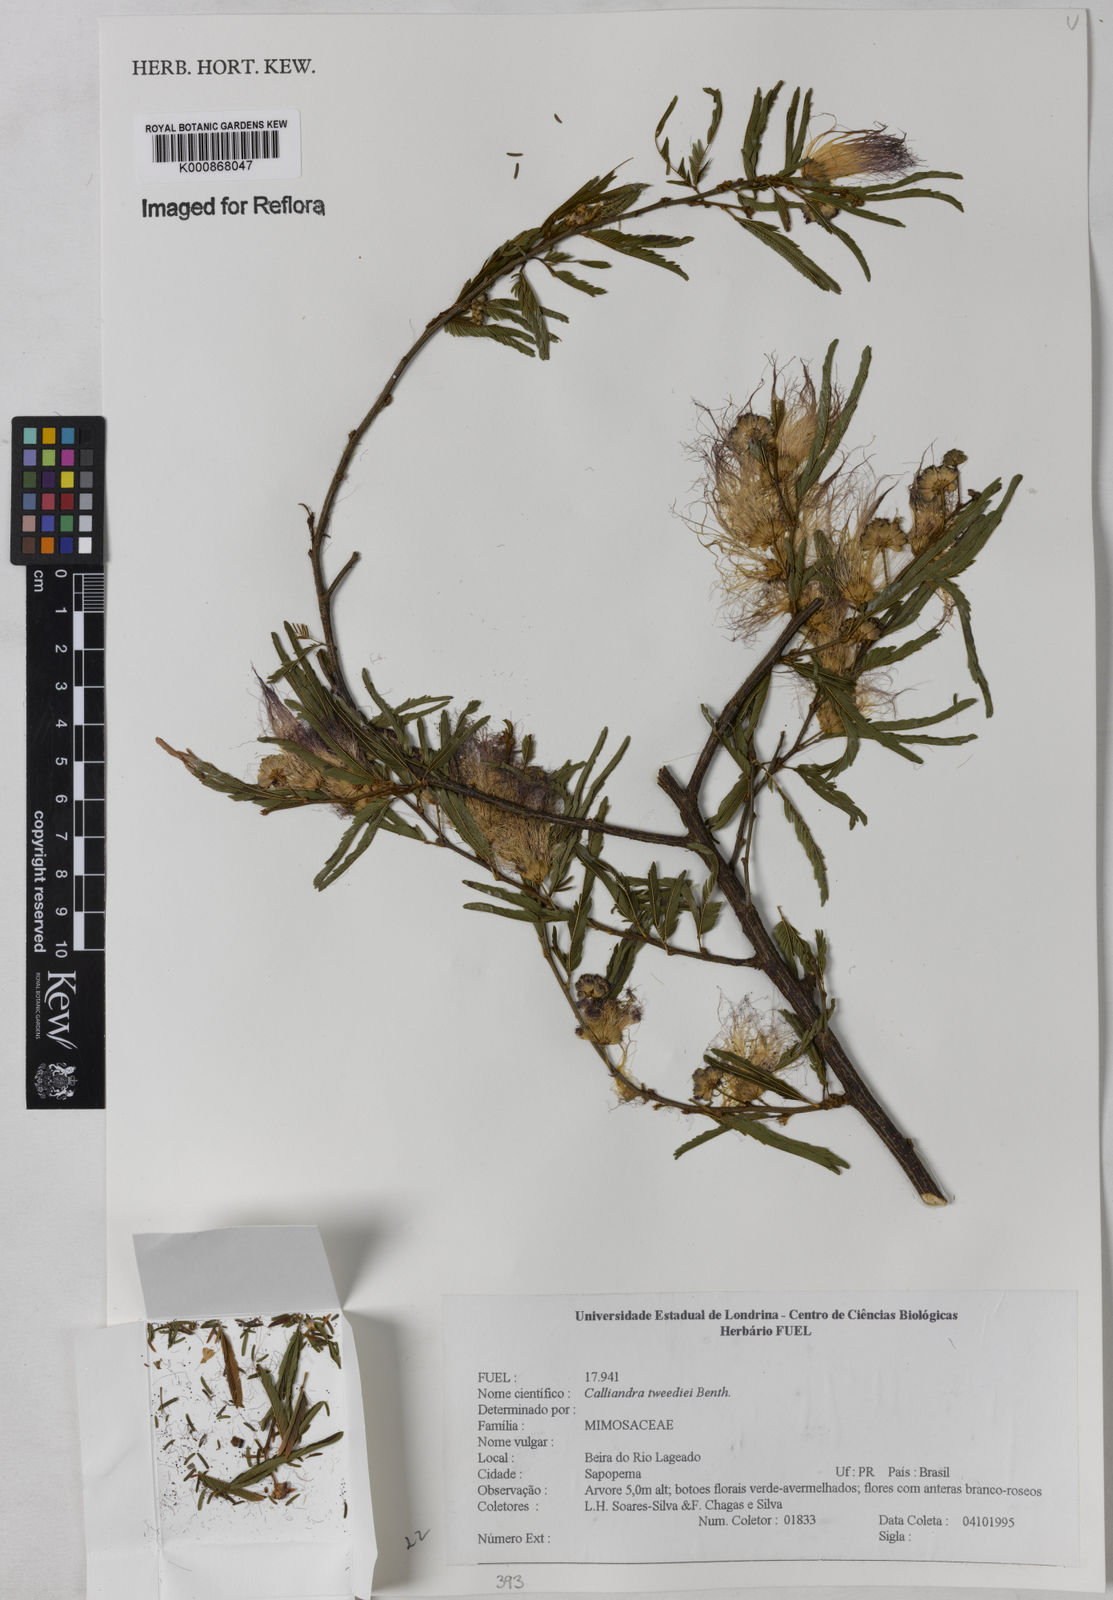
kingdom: Plantae
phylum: Tracheophyta
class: Magnoliopsida
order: Fabales
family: Fabaceae
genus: Calliandra
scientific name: Calliandra tweediei
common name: Mexican flamebush
